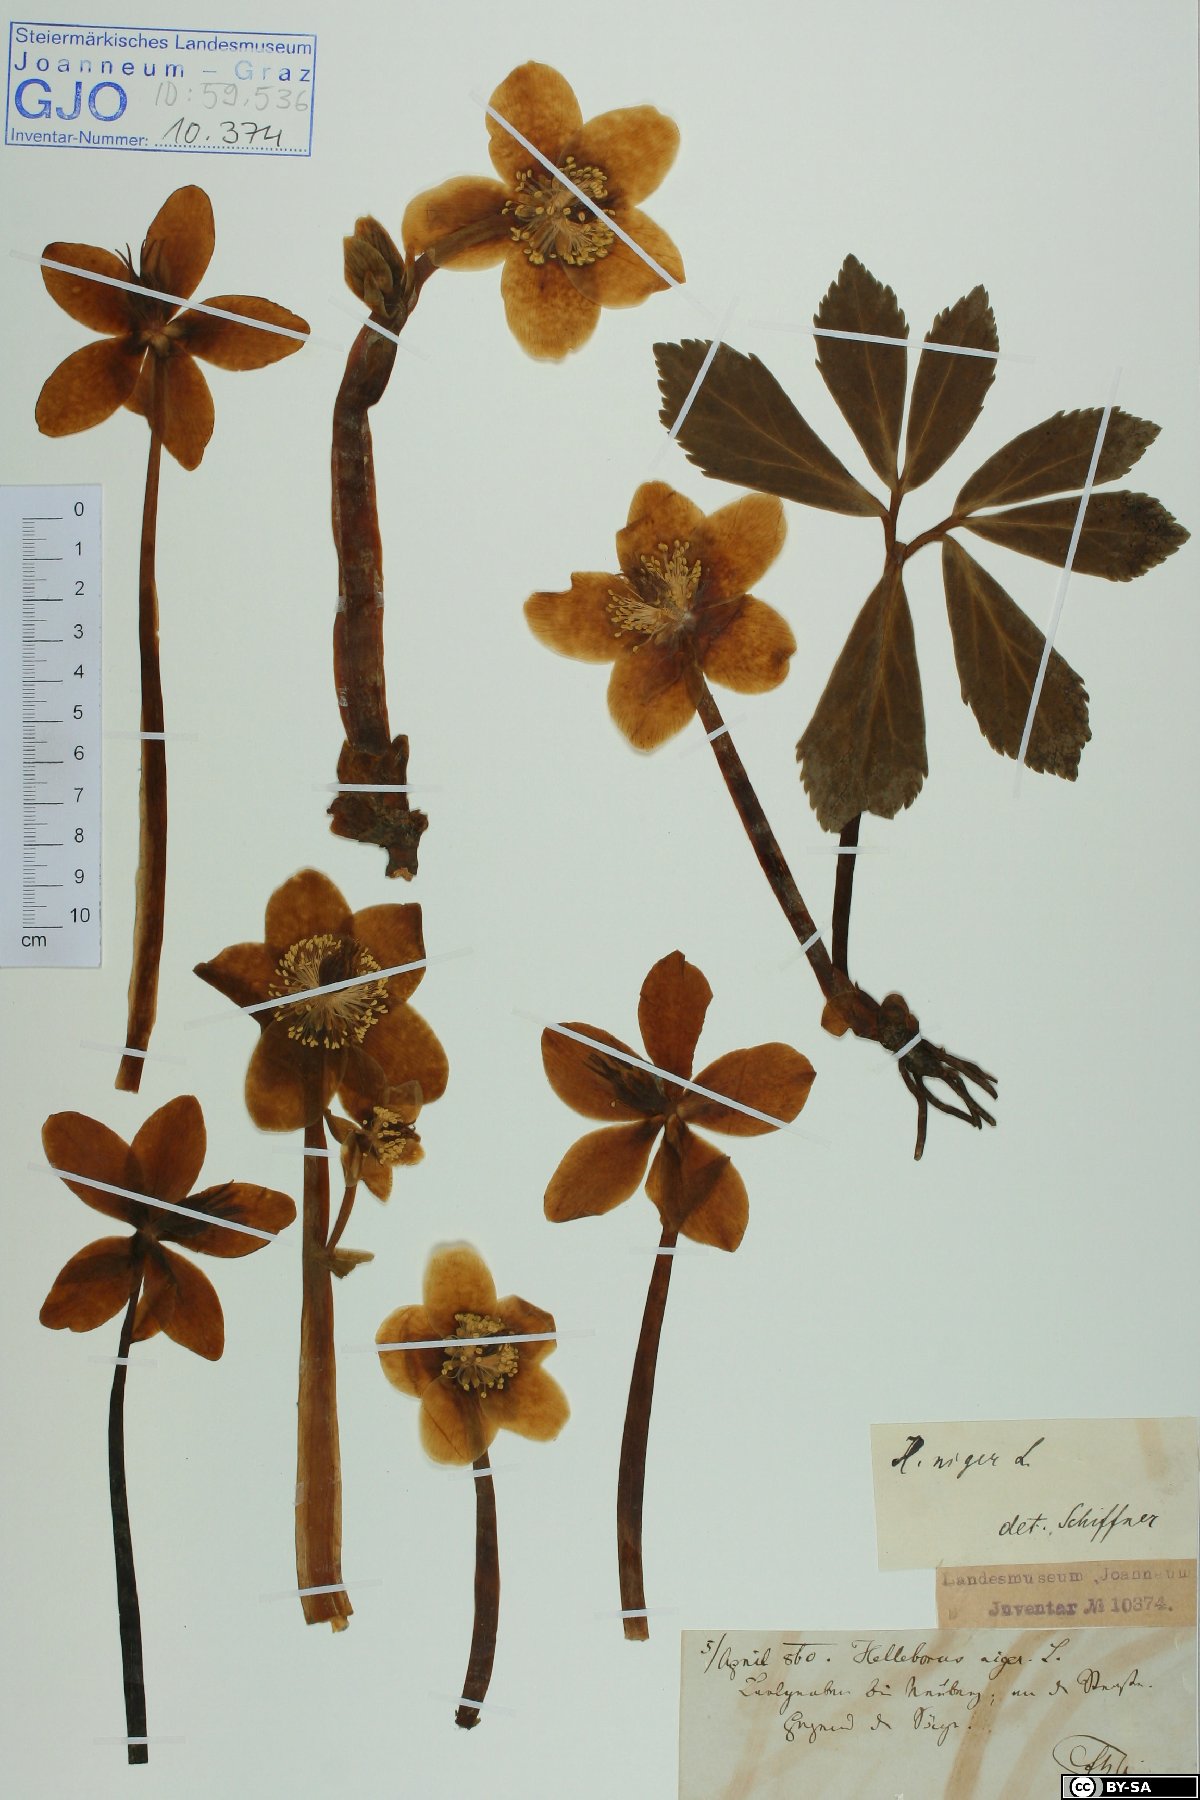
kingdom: Plantae
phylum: Tracheophyta
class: Magnoliopsida
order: Ranunculales
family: Ranunculaceae
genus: Helleborus
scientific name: Helleborus niger
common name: Black hellebore
